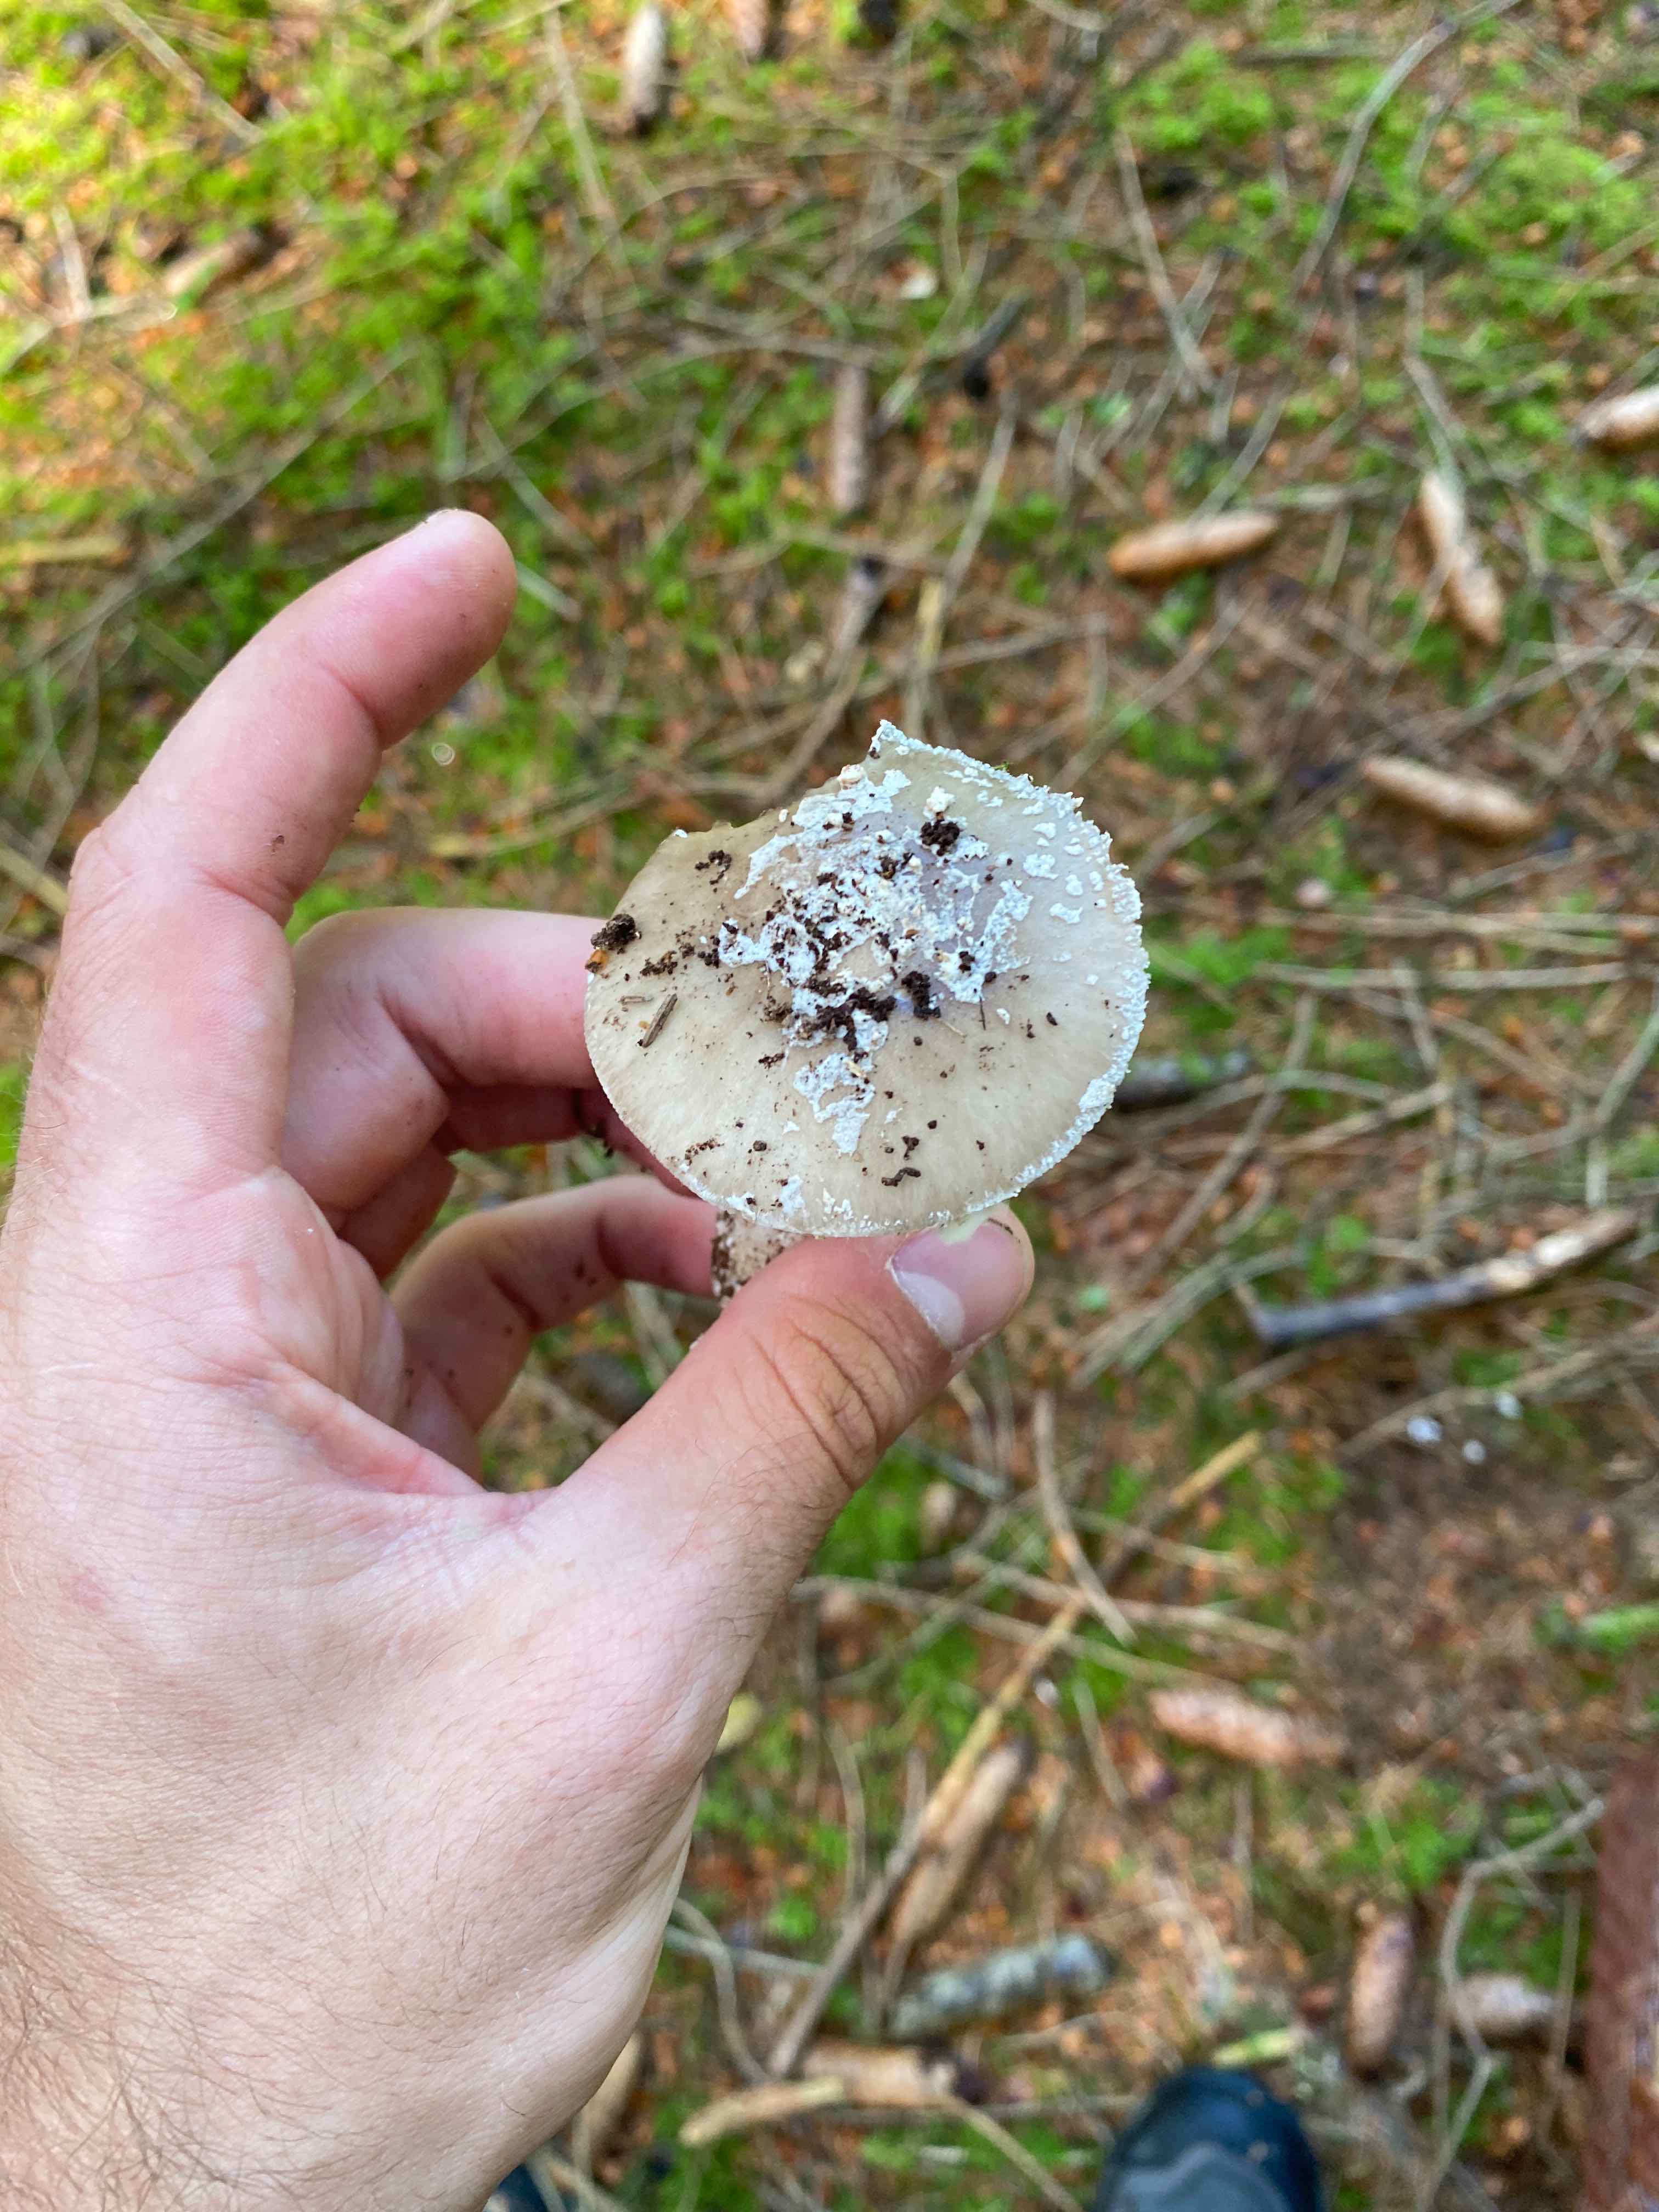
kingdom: Fungi
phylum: Basidiomycota
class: Agaricomycetes
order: Agaricales
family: Amanitaceae
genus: Amanita
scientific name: Amanita
